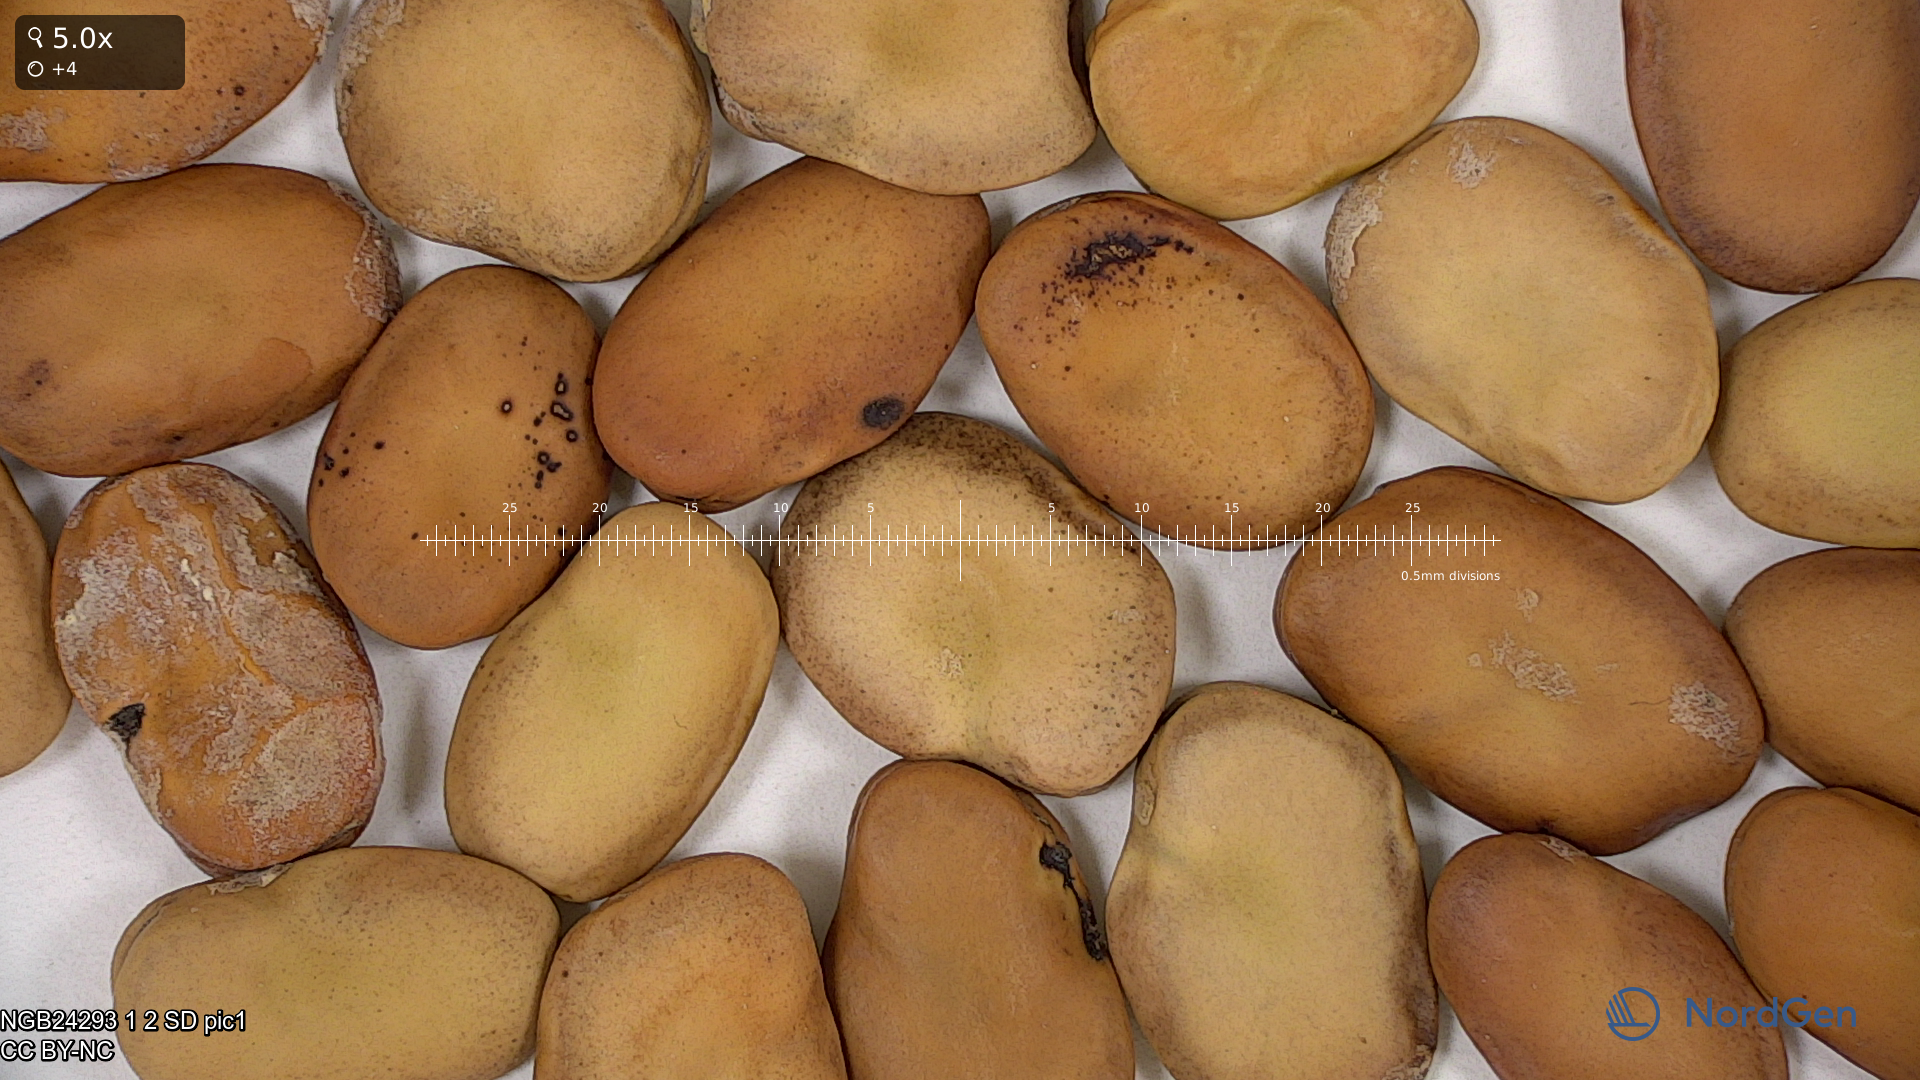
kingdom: Plantae
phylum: Tracheophyta
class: Magnoliopsida
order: Fabales
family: Fabaceae
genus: Vicia
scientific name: Vicia faba
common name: Broad bean
